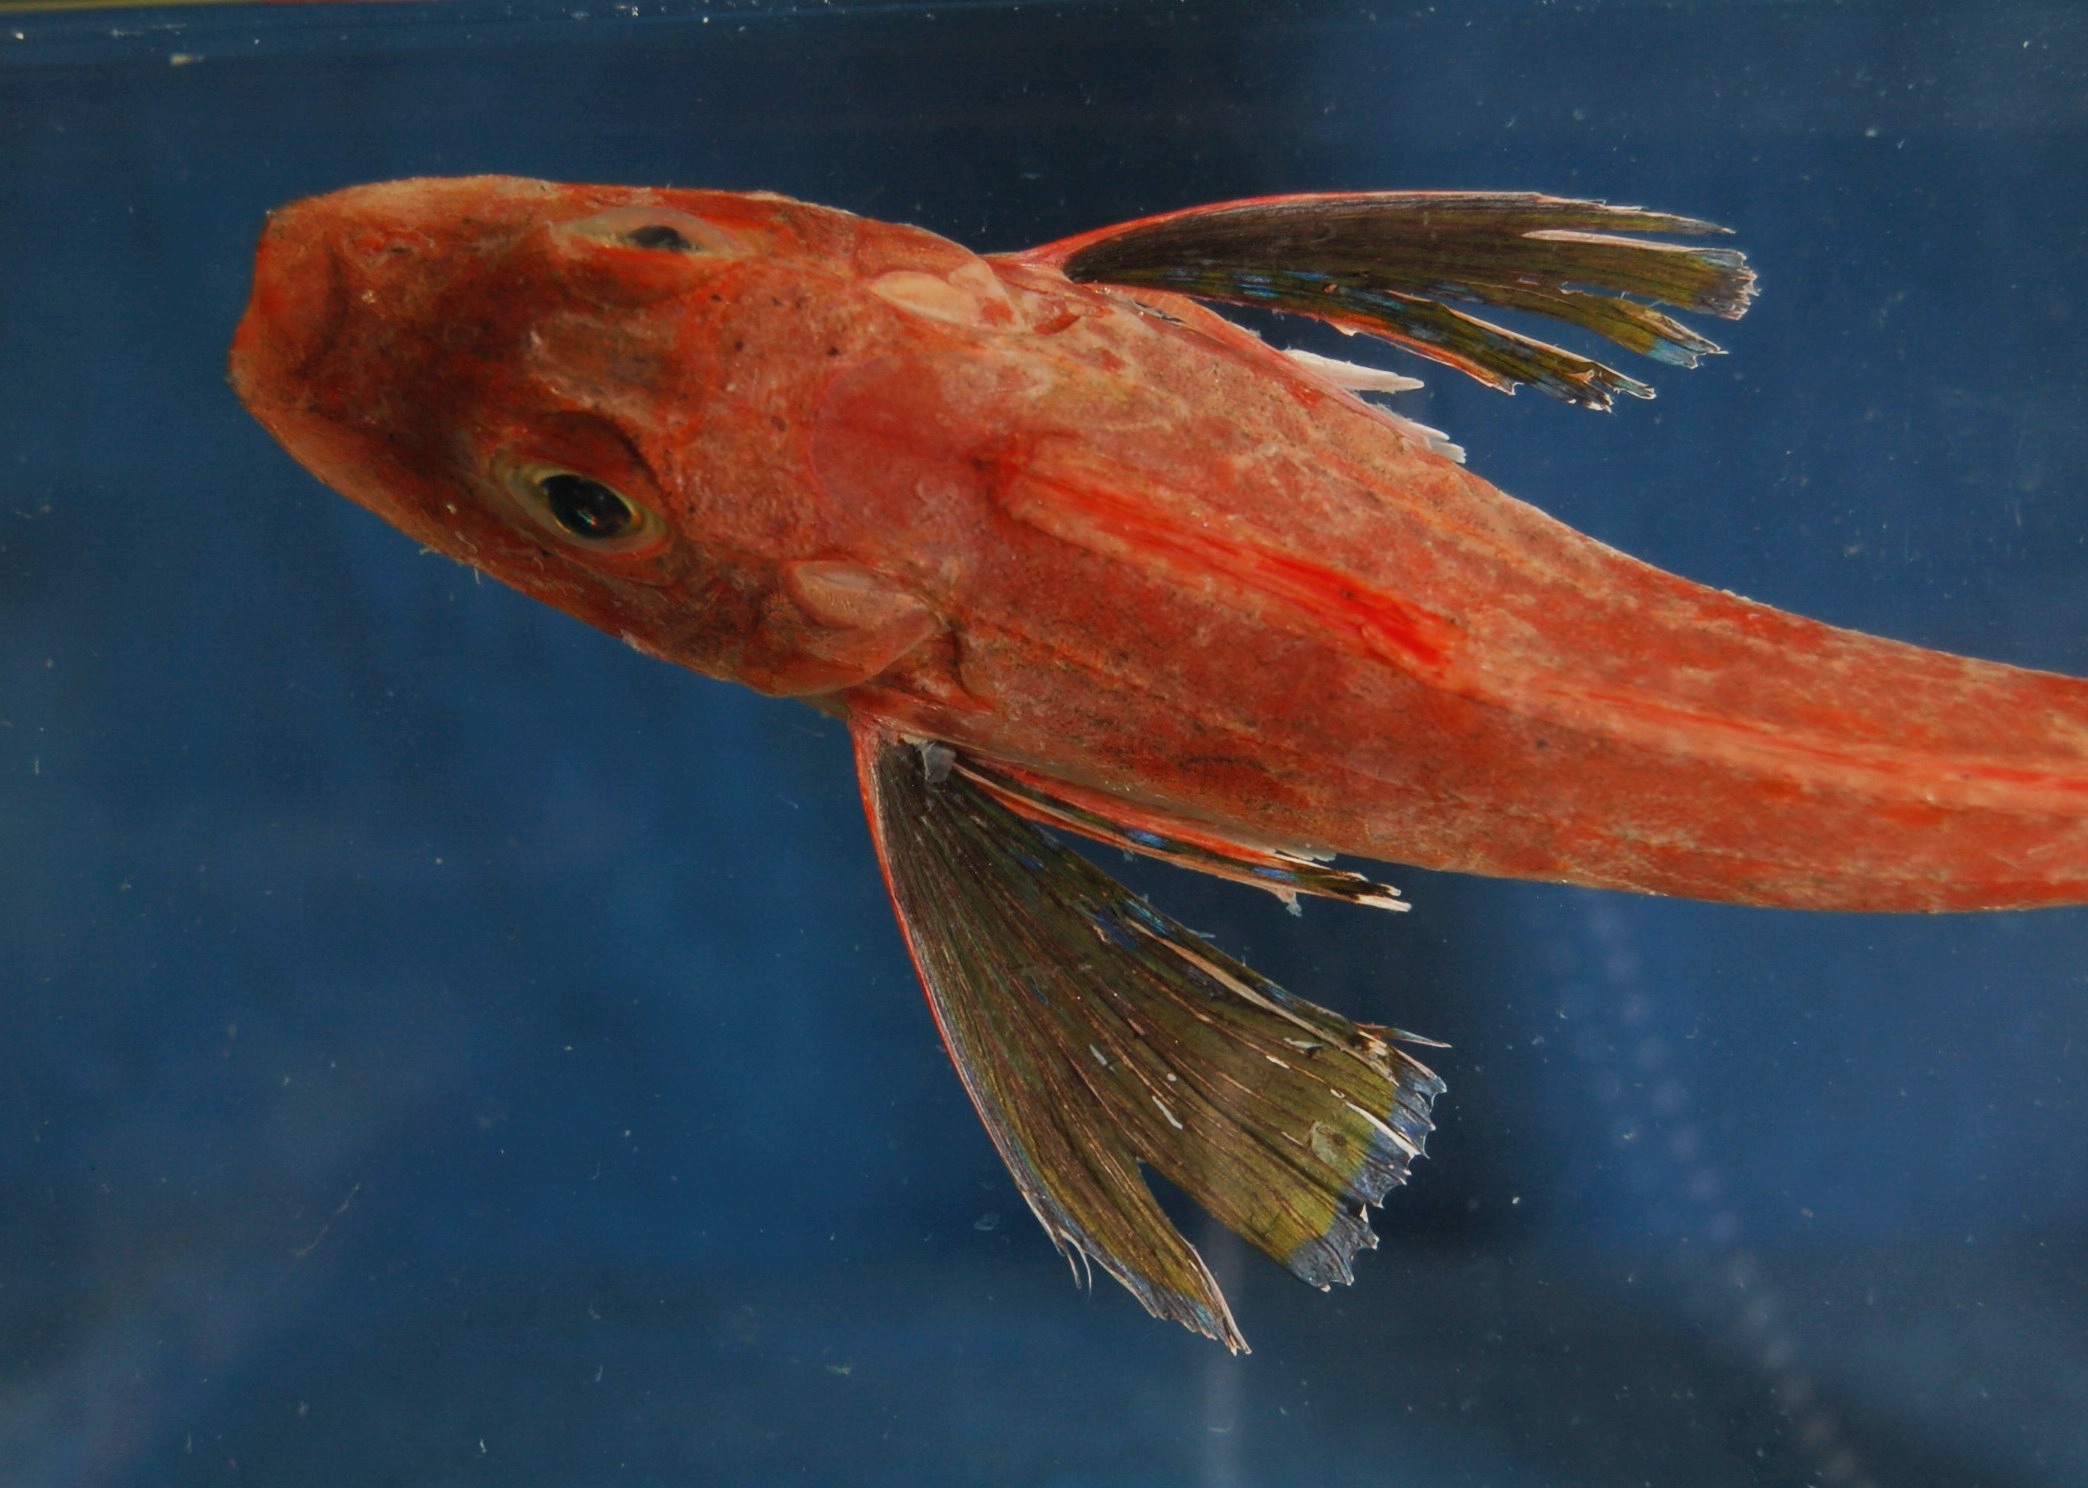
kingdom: Animalia
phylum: Chordata
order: Scorpaeniformes
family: Triglidae
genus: Chelidonichthys
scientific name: Chelidonichthys kumu
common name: Bluefin gurnard
